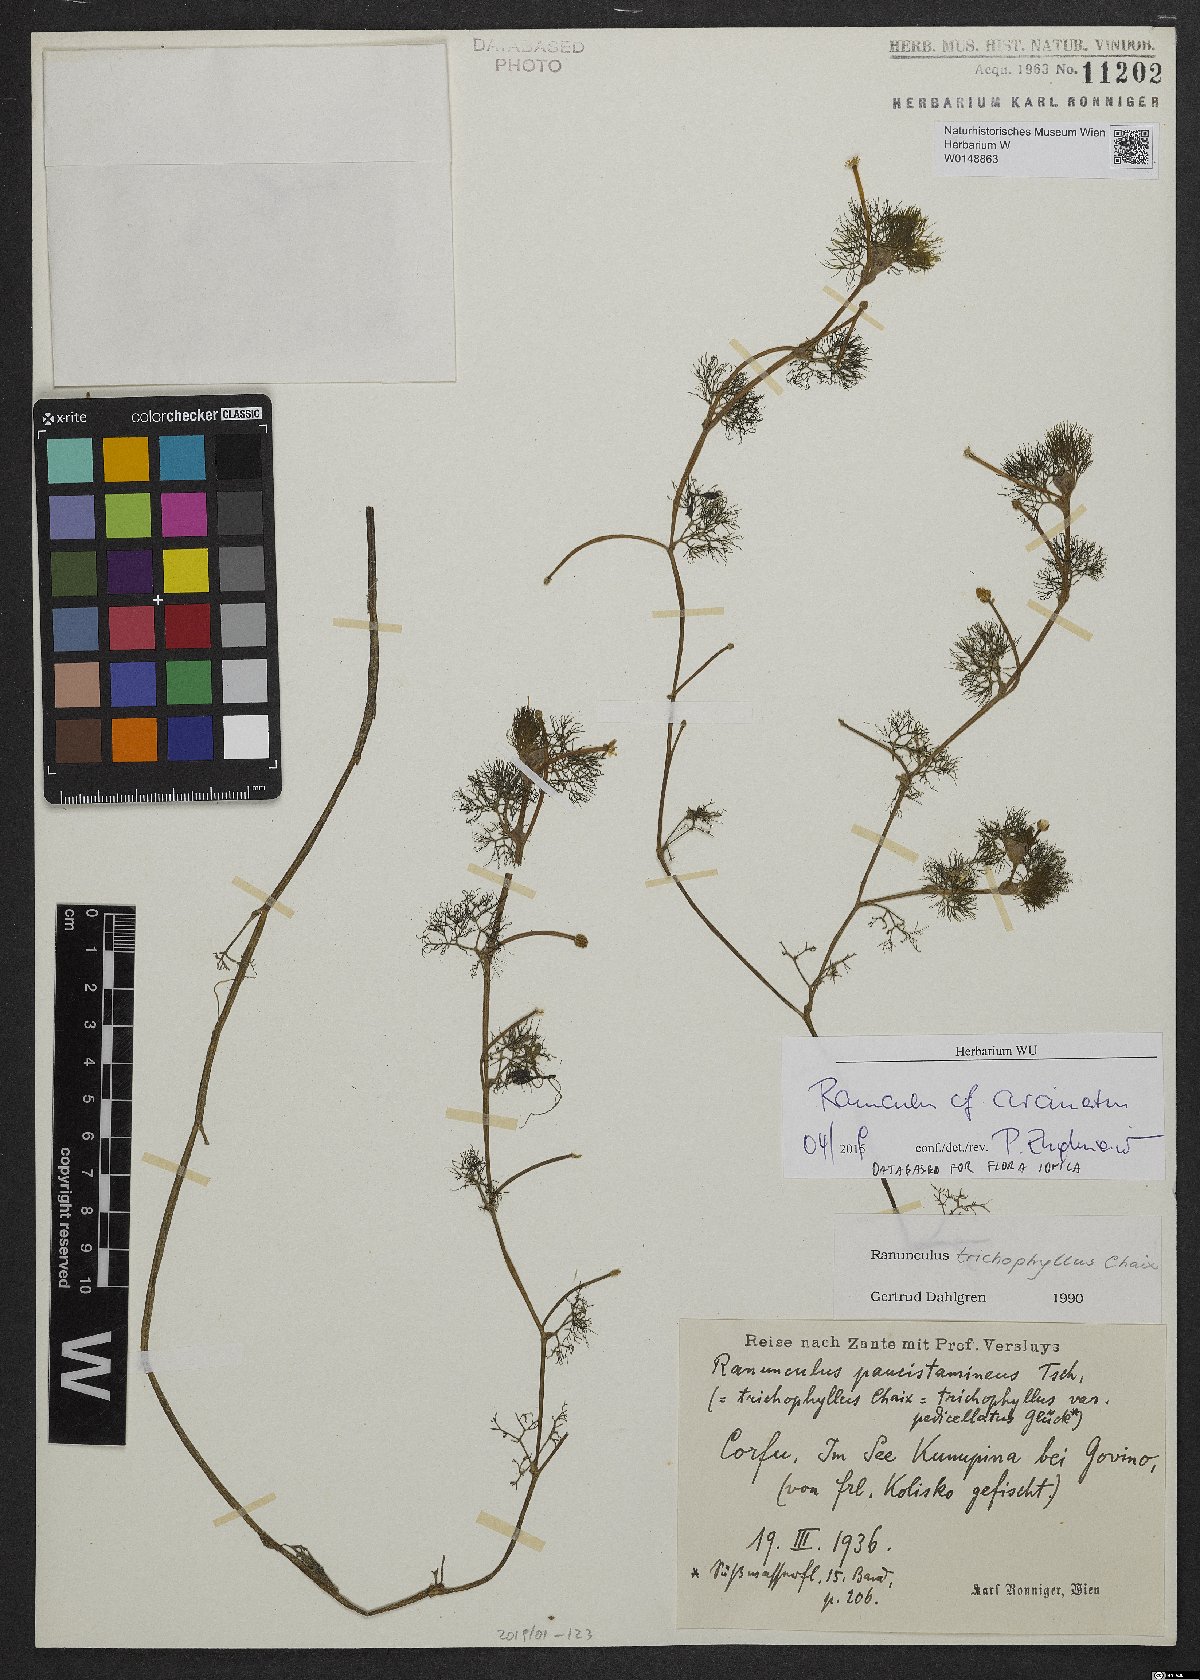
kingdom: Plantae
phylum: Tracheophyta
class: Magnoliopsida
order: Ranunculales
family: Ranunculaceae
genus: Ranunculus
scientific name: Ranunculus circinatus
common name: Fan-leaved water-crowfoot
